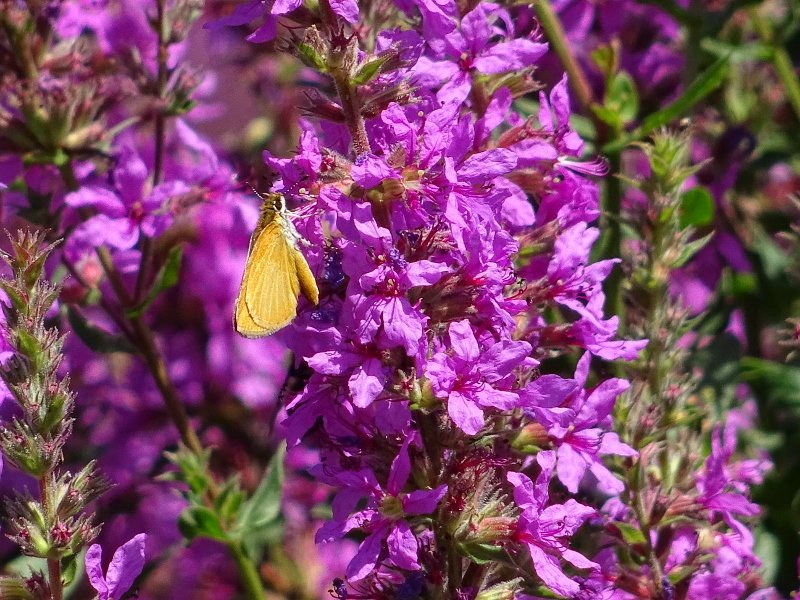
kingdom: Animalia
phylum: Arthropoda
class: Insecta
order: Lepidoptera
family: Hesperiidae
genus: Ancyloxypha
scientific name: Ancyloxypha numitor
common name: Least Skipper
